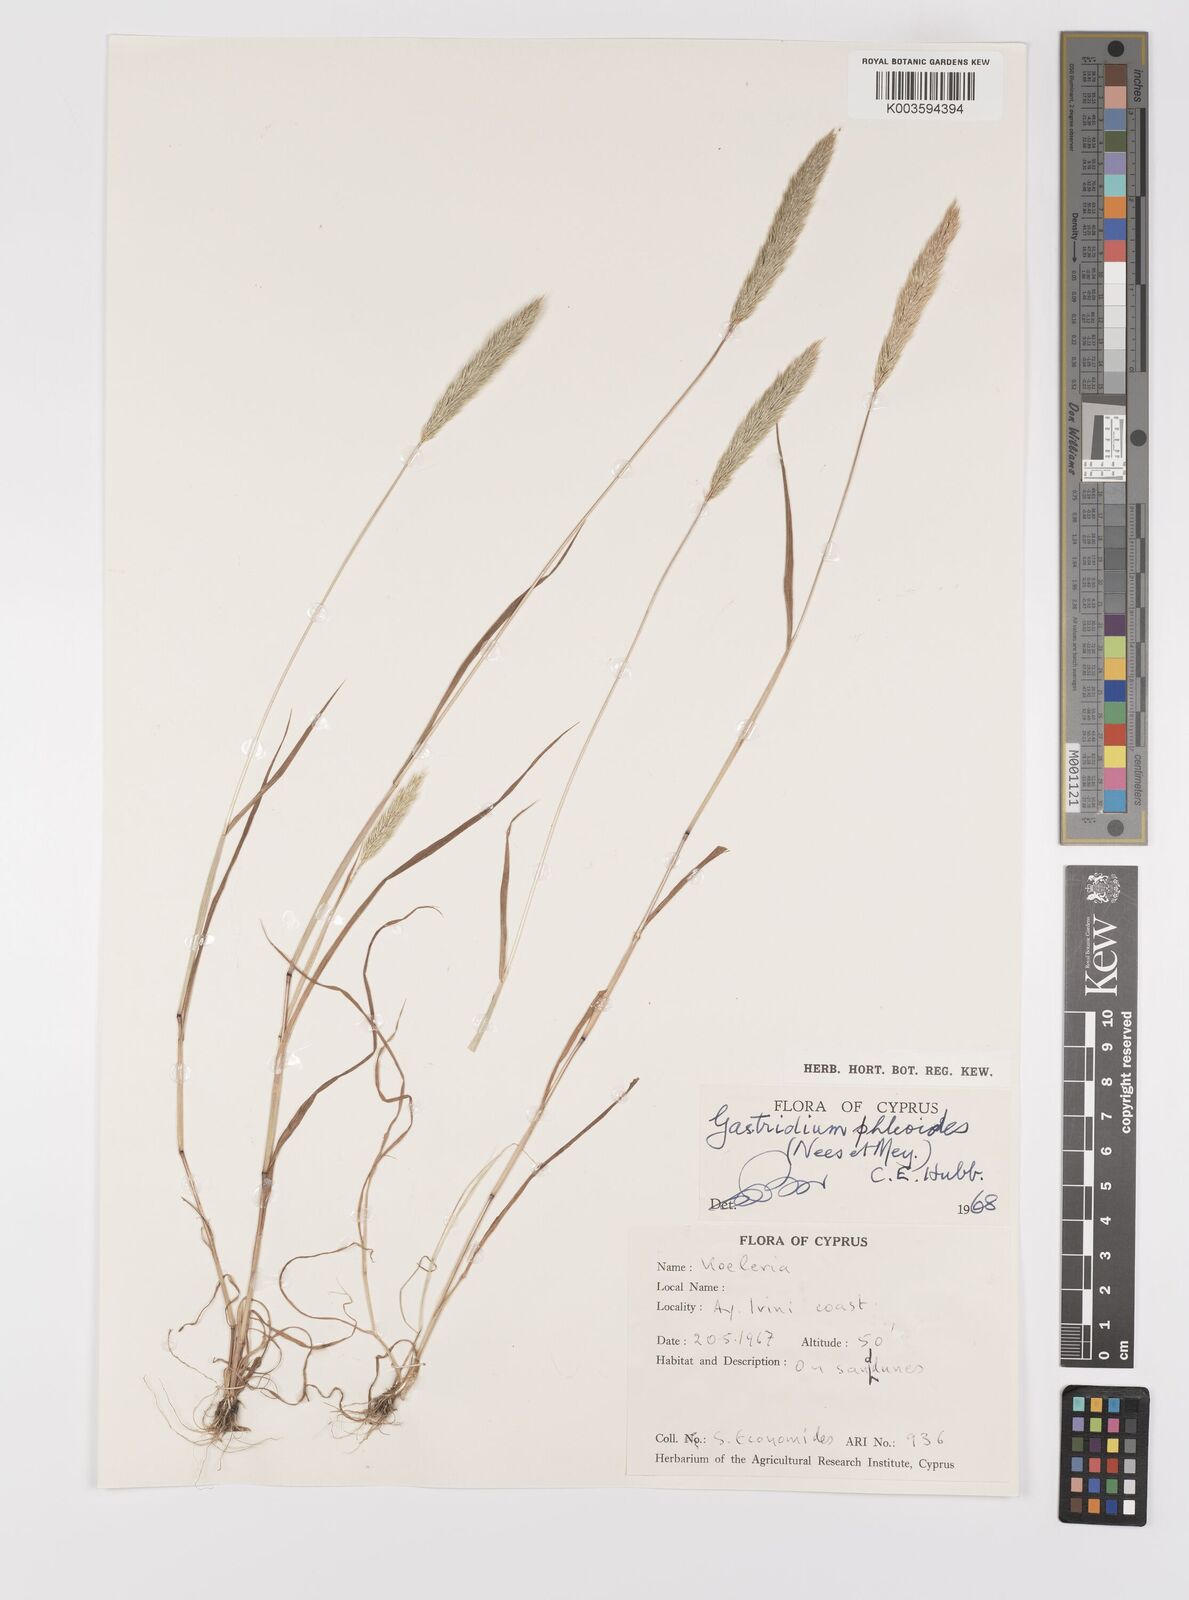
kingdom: Plantae
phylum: Tracheophyta
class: Liliopsida
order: Poales
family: Poaceae
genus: Gastridium
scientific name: Gastridium phleoides
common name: Nit grass
